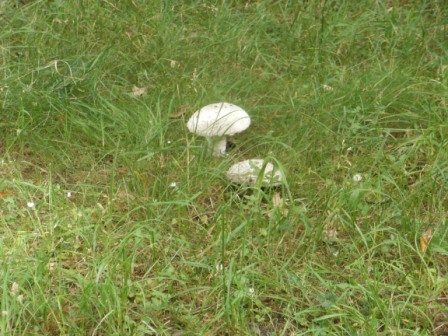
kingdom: Fungi
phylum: Basidiomycota
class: Agaricomycetes
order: Agaricales
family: Amanitaceae
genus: Amanita
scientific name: Amanita
